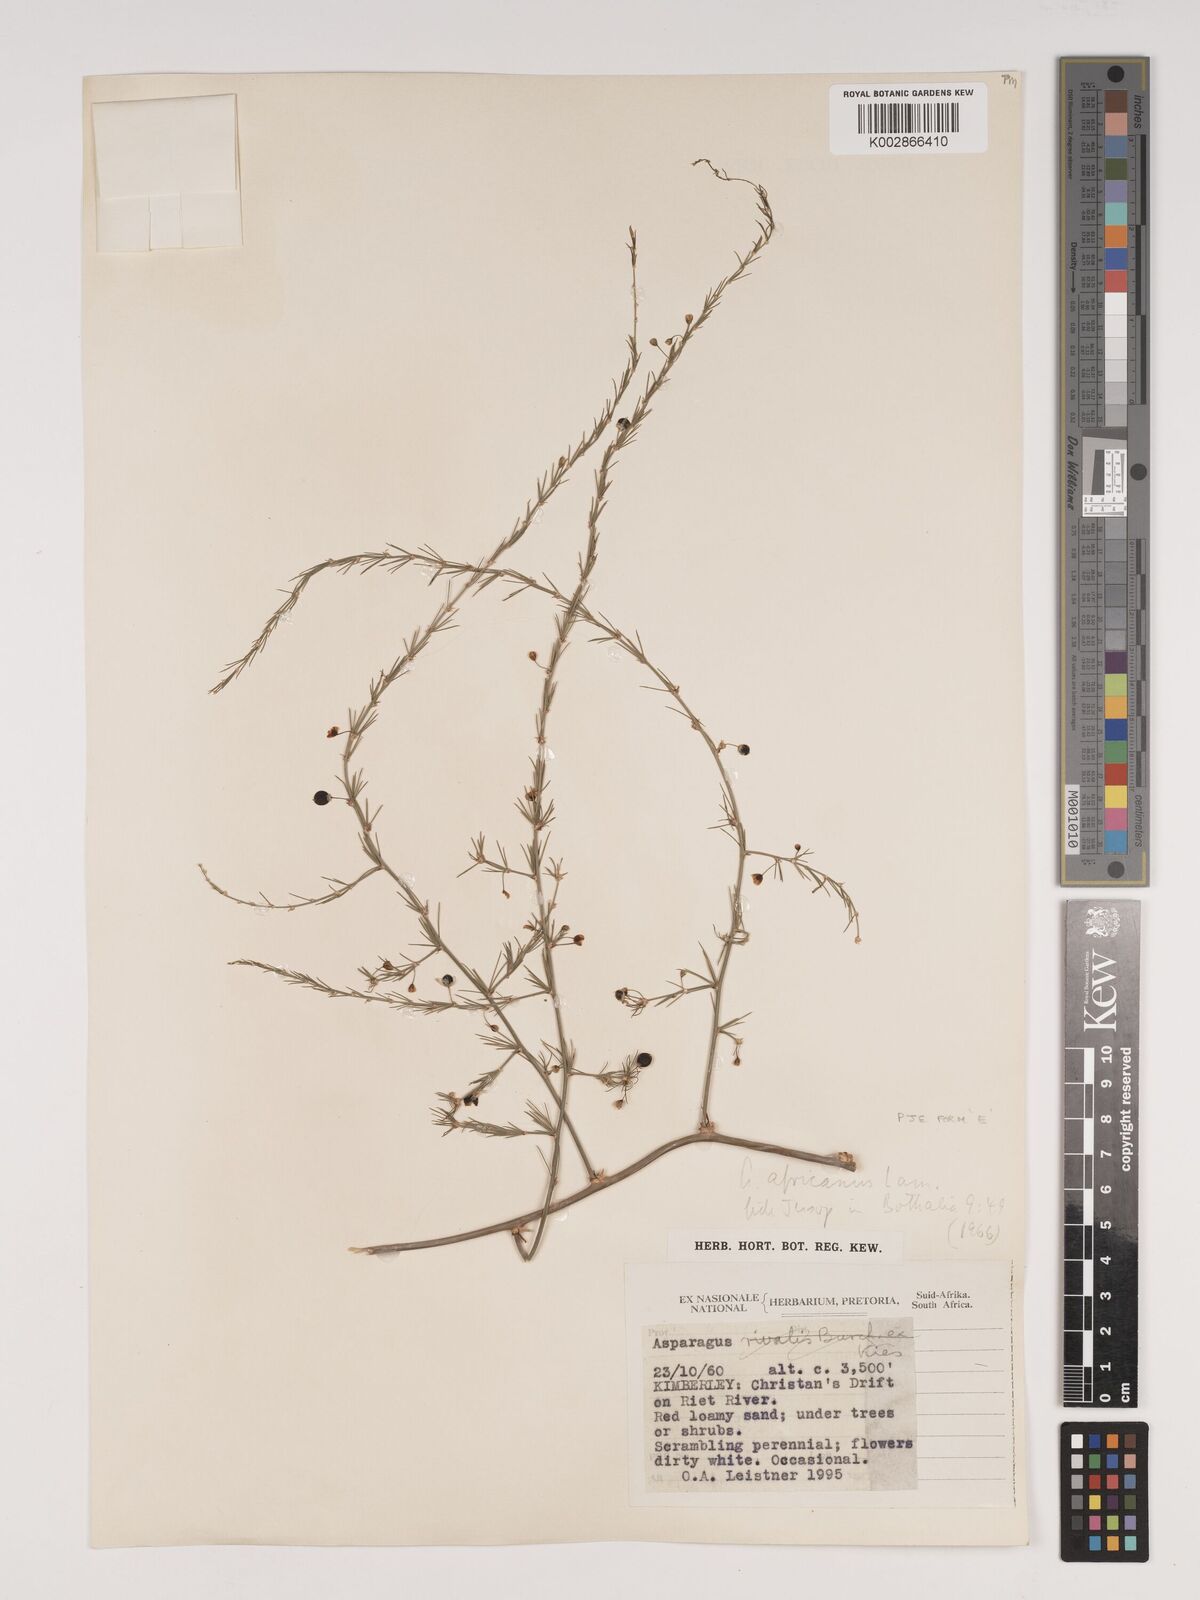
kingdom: Plantae
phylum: Tracheophyta
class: Liliopsida
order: Asparagales
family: Asparagaceae
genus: Asparagus
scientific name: Asparagus africanus
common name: Asparagus-fern
